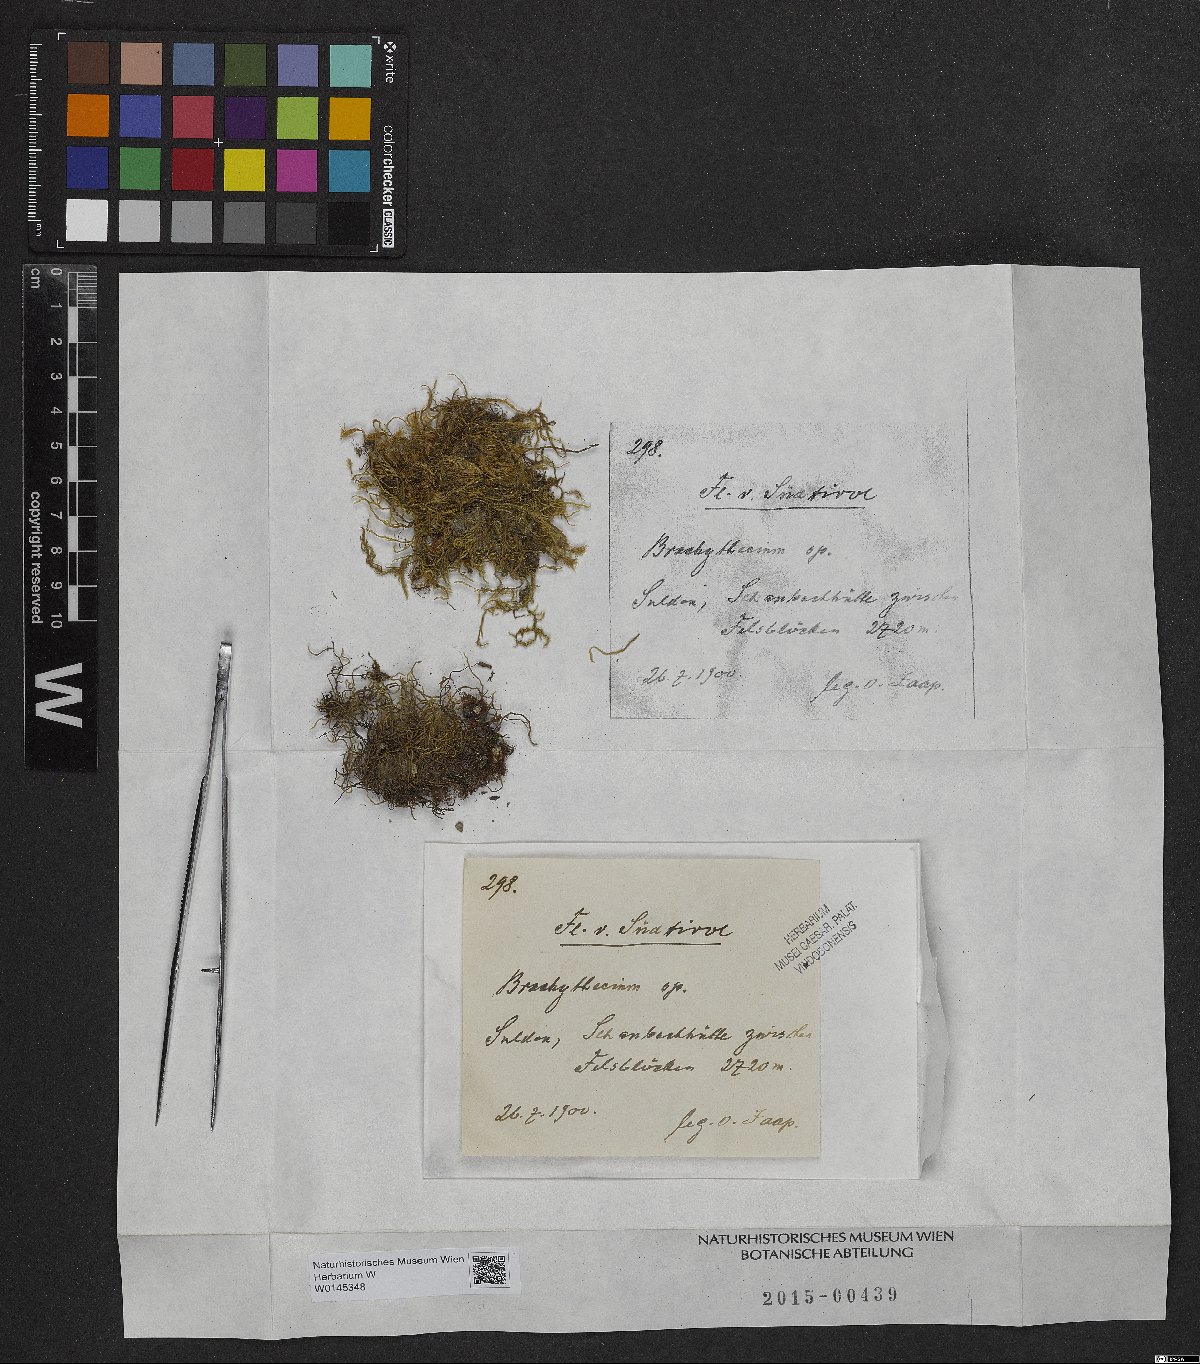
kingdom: Plantae
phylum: Bryophyta
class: Bryopsida
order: Hypnales
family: Brachytheciaceae
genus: Brachythecium
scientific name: Brachythecium
